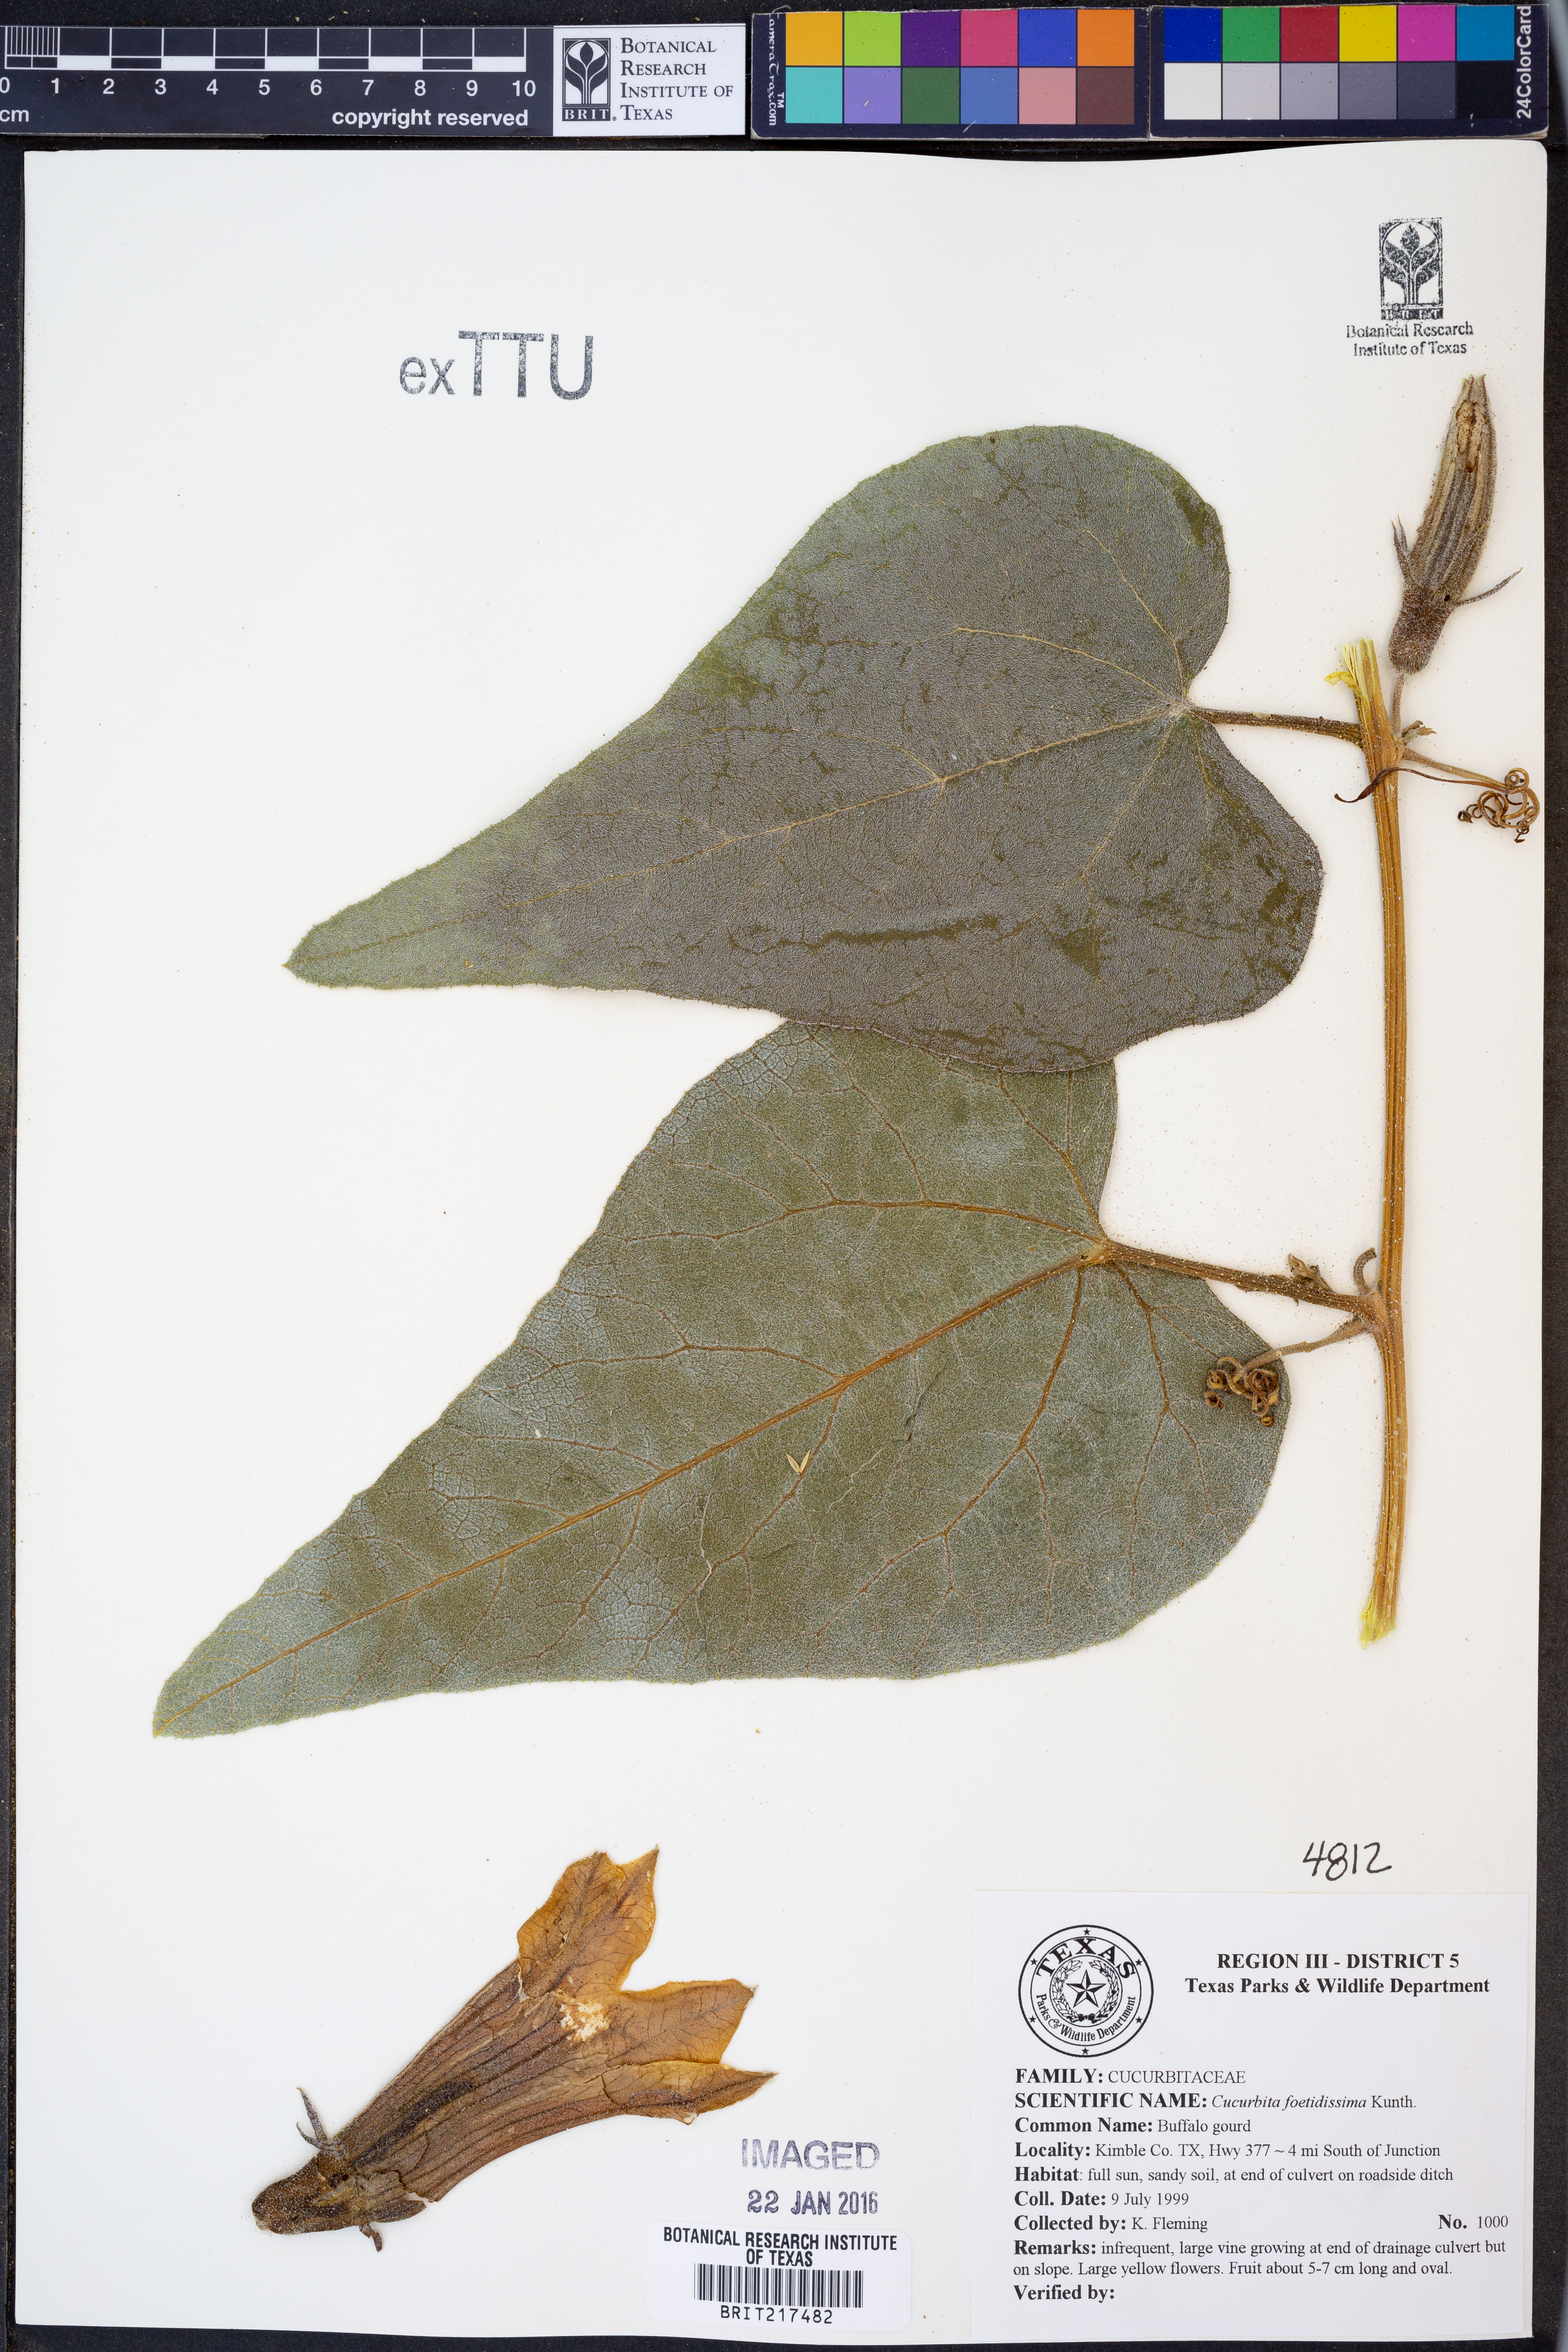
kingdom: Plantae
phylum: Tracheophyta
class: Magnoliopsida
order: Cucurbitales
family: Cucurbitaceae
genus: Cucurbita
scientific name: Cucurbita foetidissima
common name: Buffalo gourd
